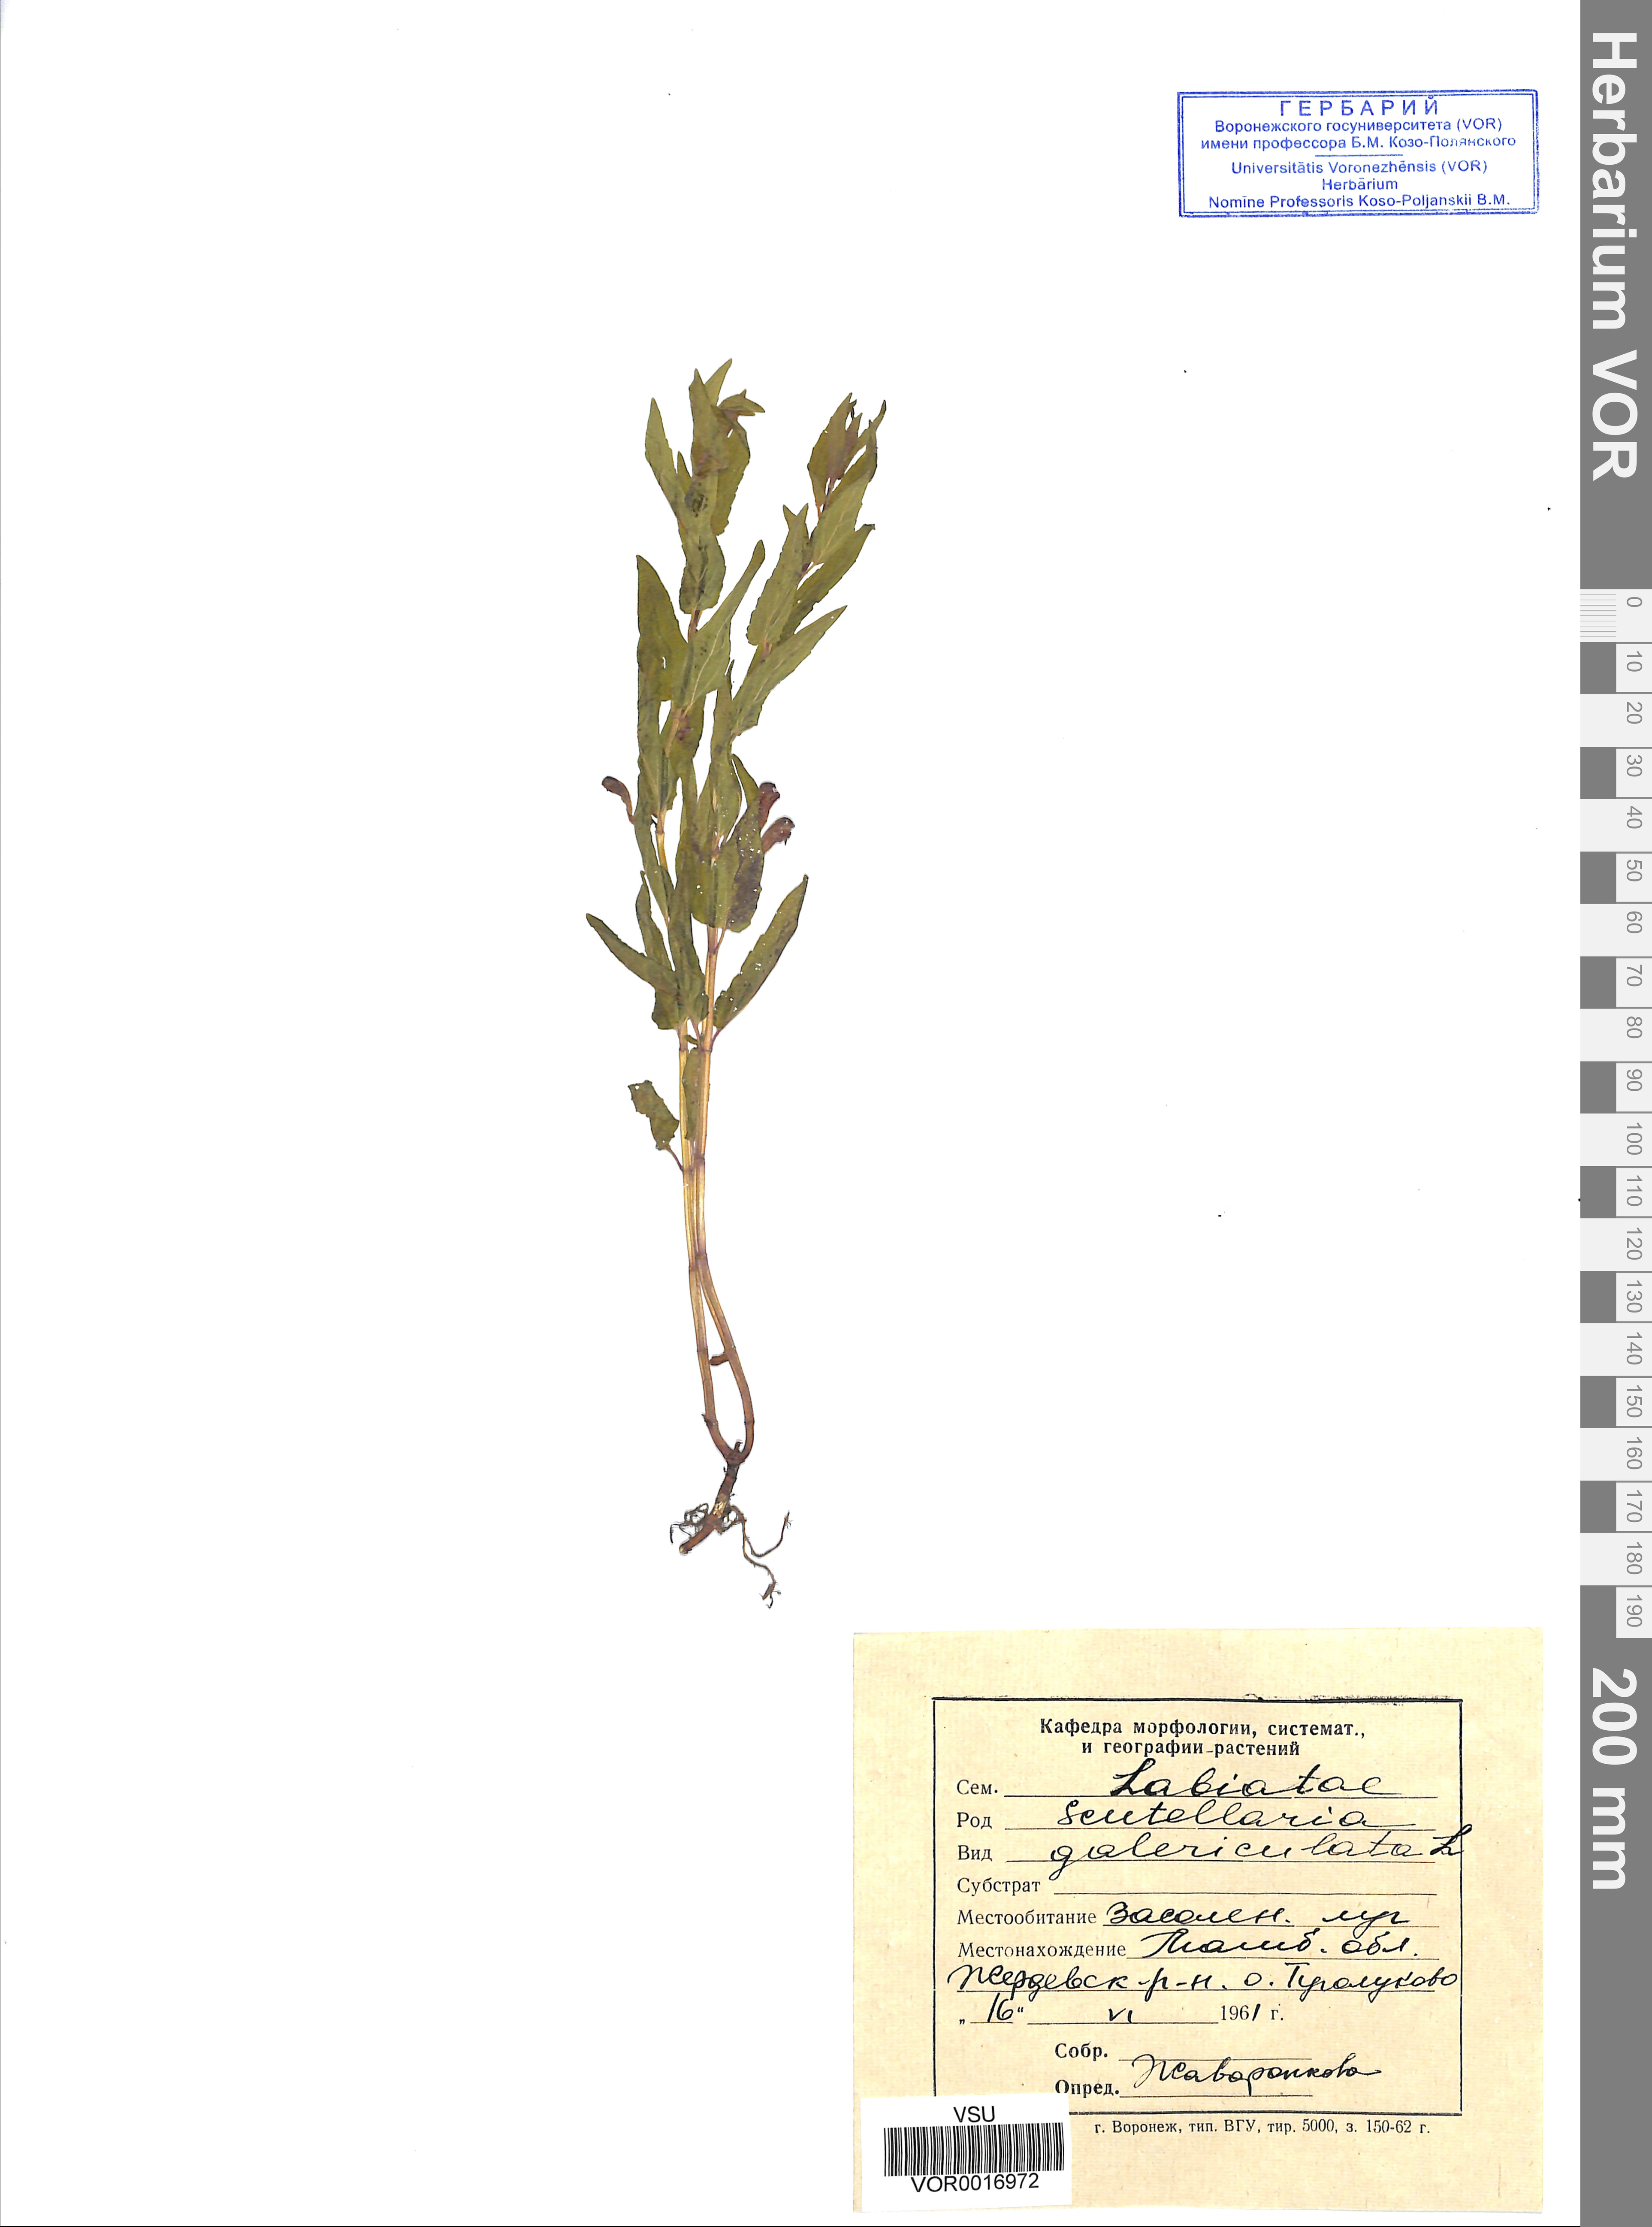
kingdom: Plantae
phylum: Tracheophyta
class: Magnoliopsida
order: Lamiales
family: Lamiaceae
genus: Scutellaria
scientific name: Scutellaria galericulata
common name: Skullcap
